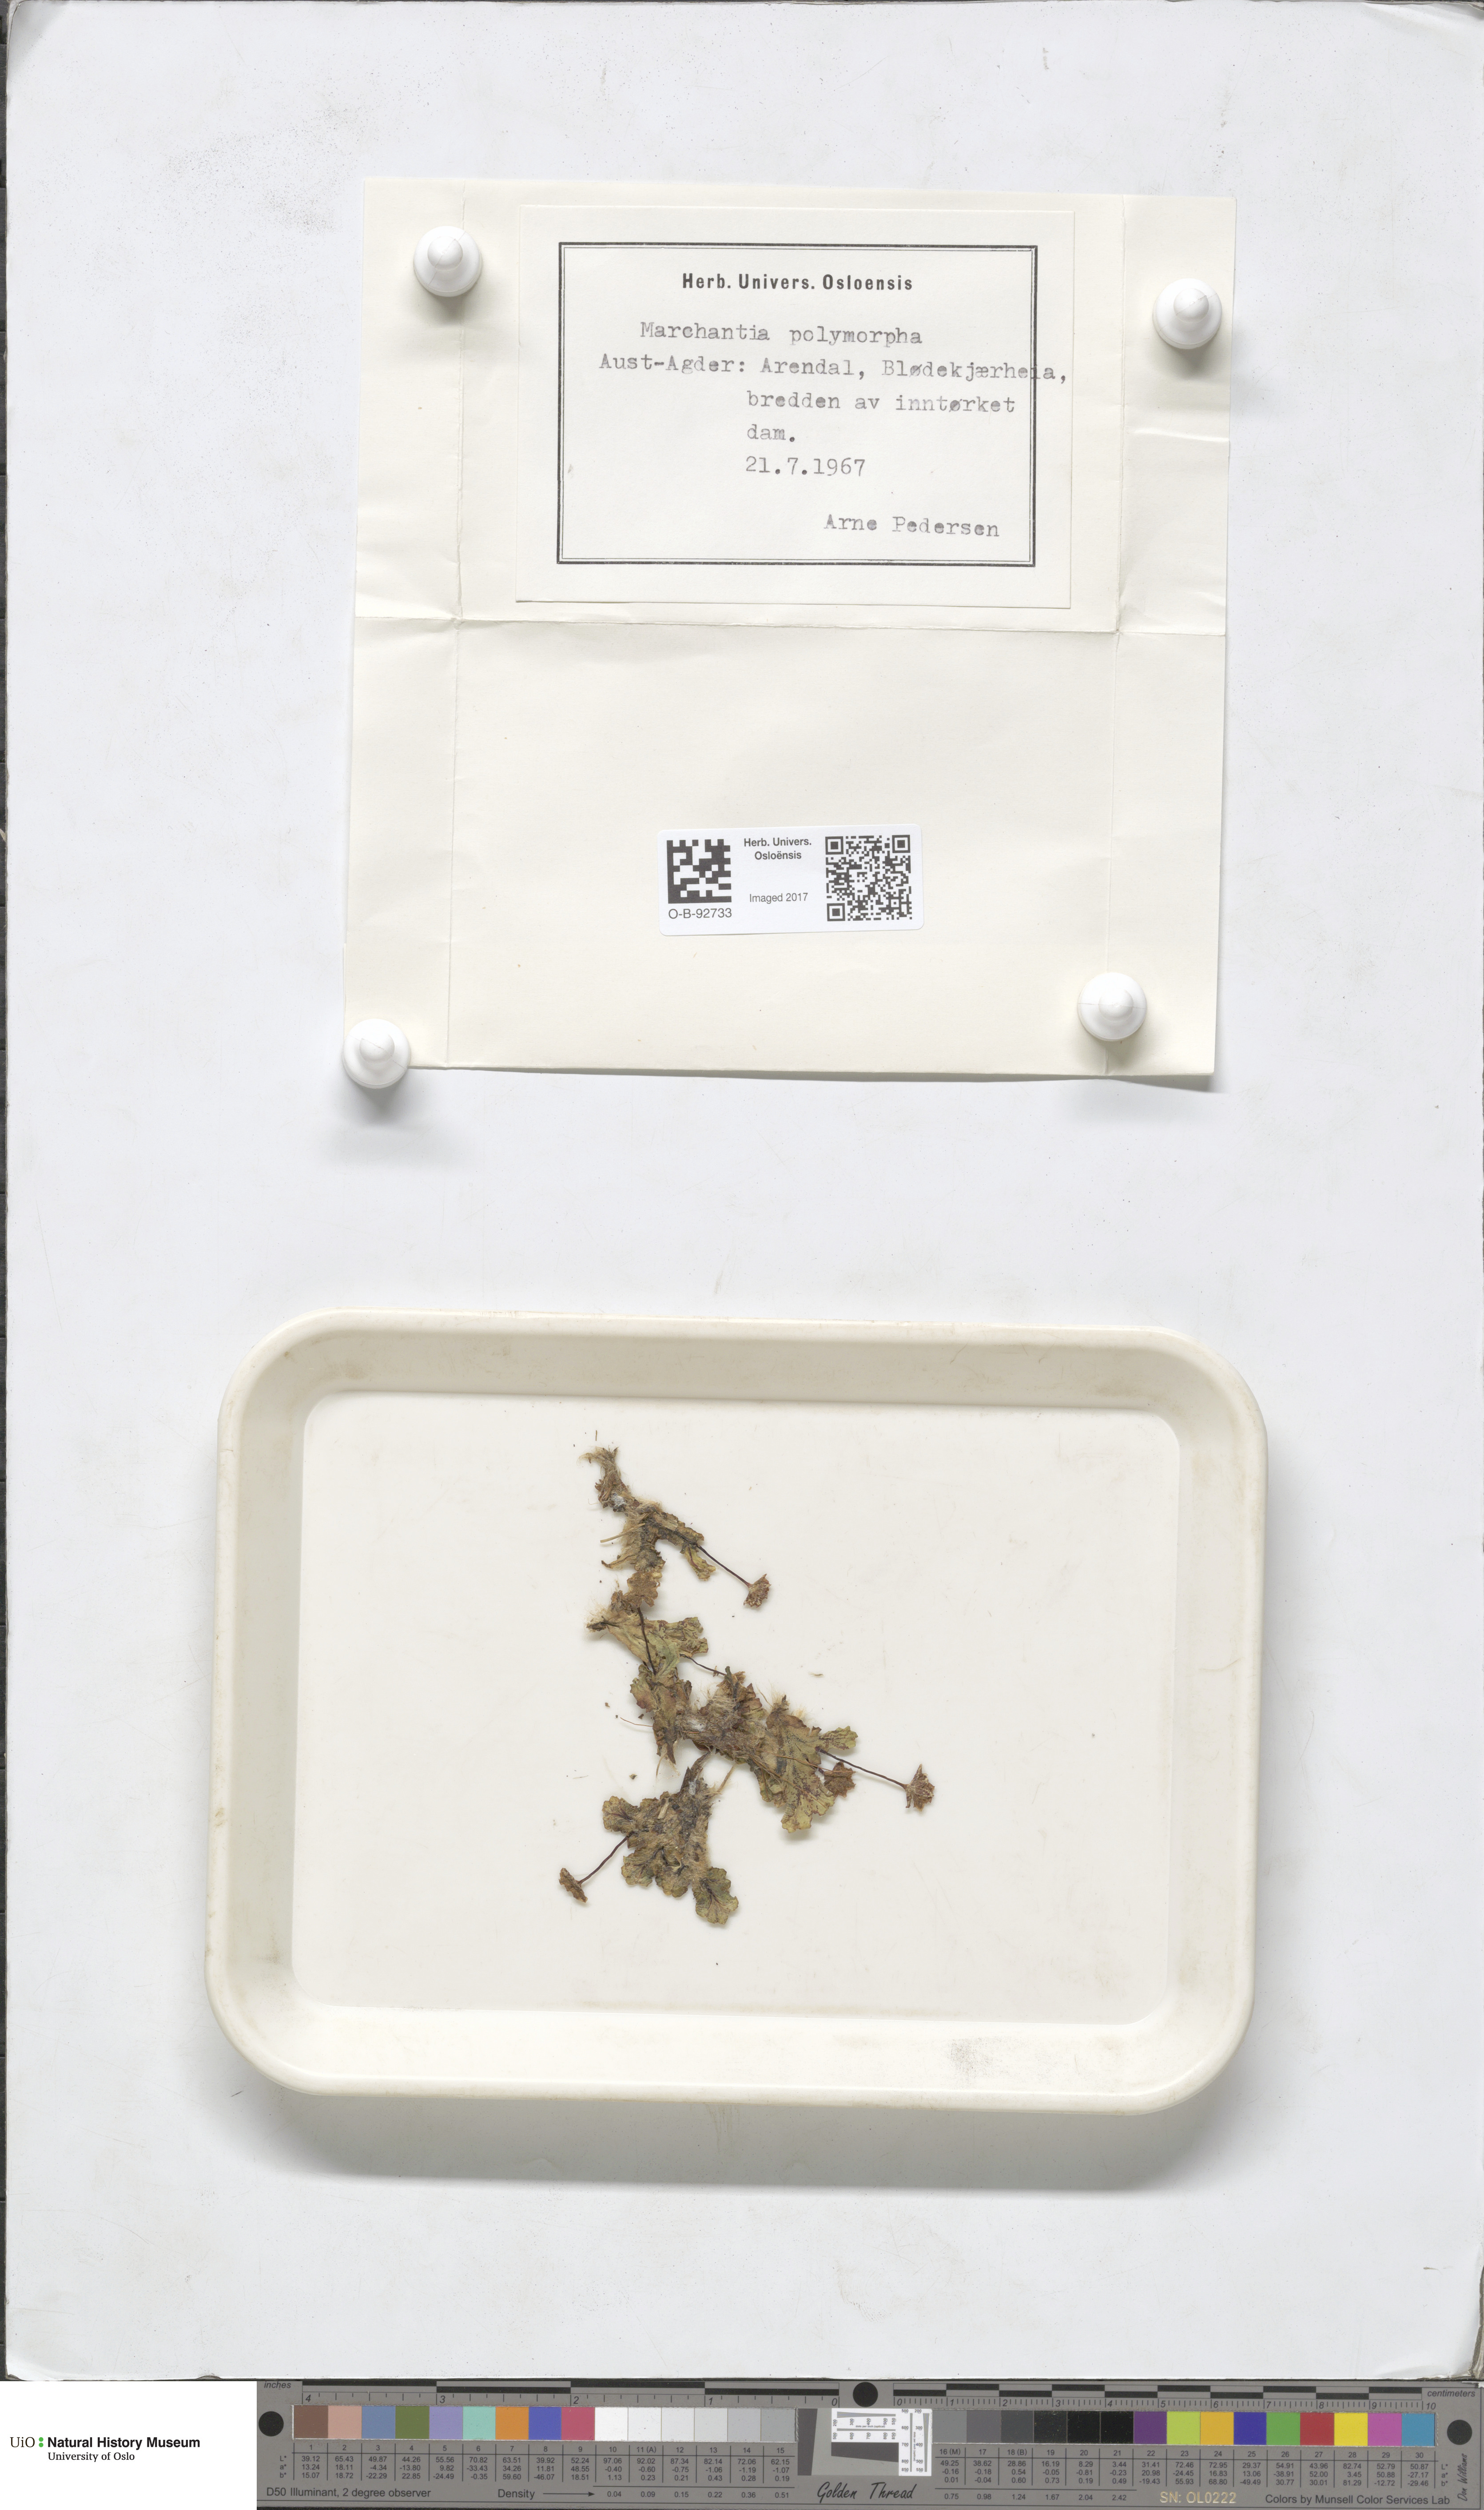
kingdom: Plantae
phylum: Marchantiophyta
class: Marchantiopsida
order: Marchantiales
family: Marchantiaceae
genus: Marchantia
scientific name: Marchantia polymorpha
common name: Common liverwort
